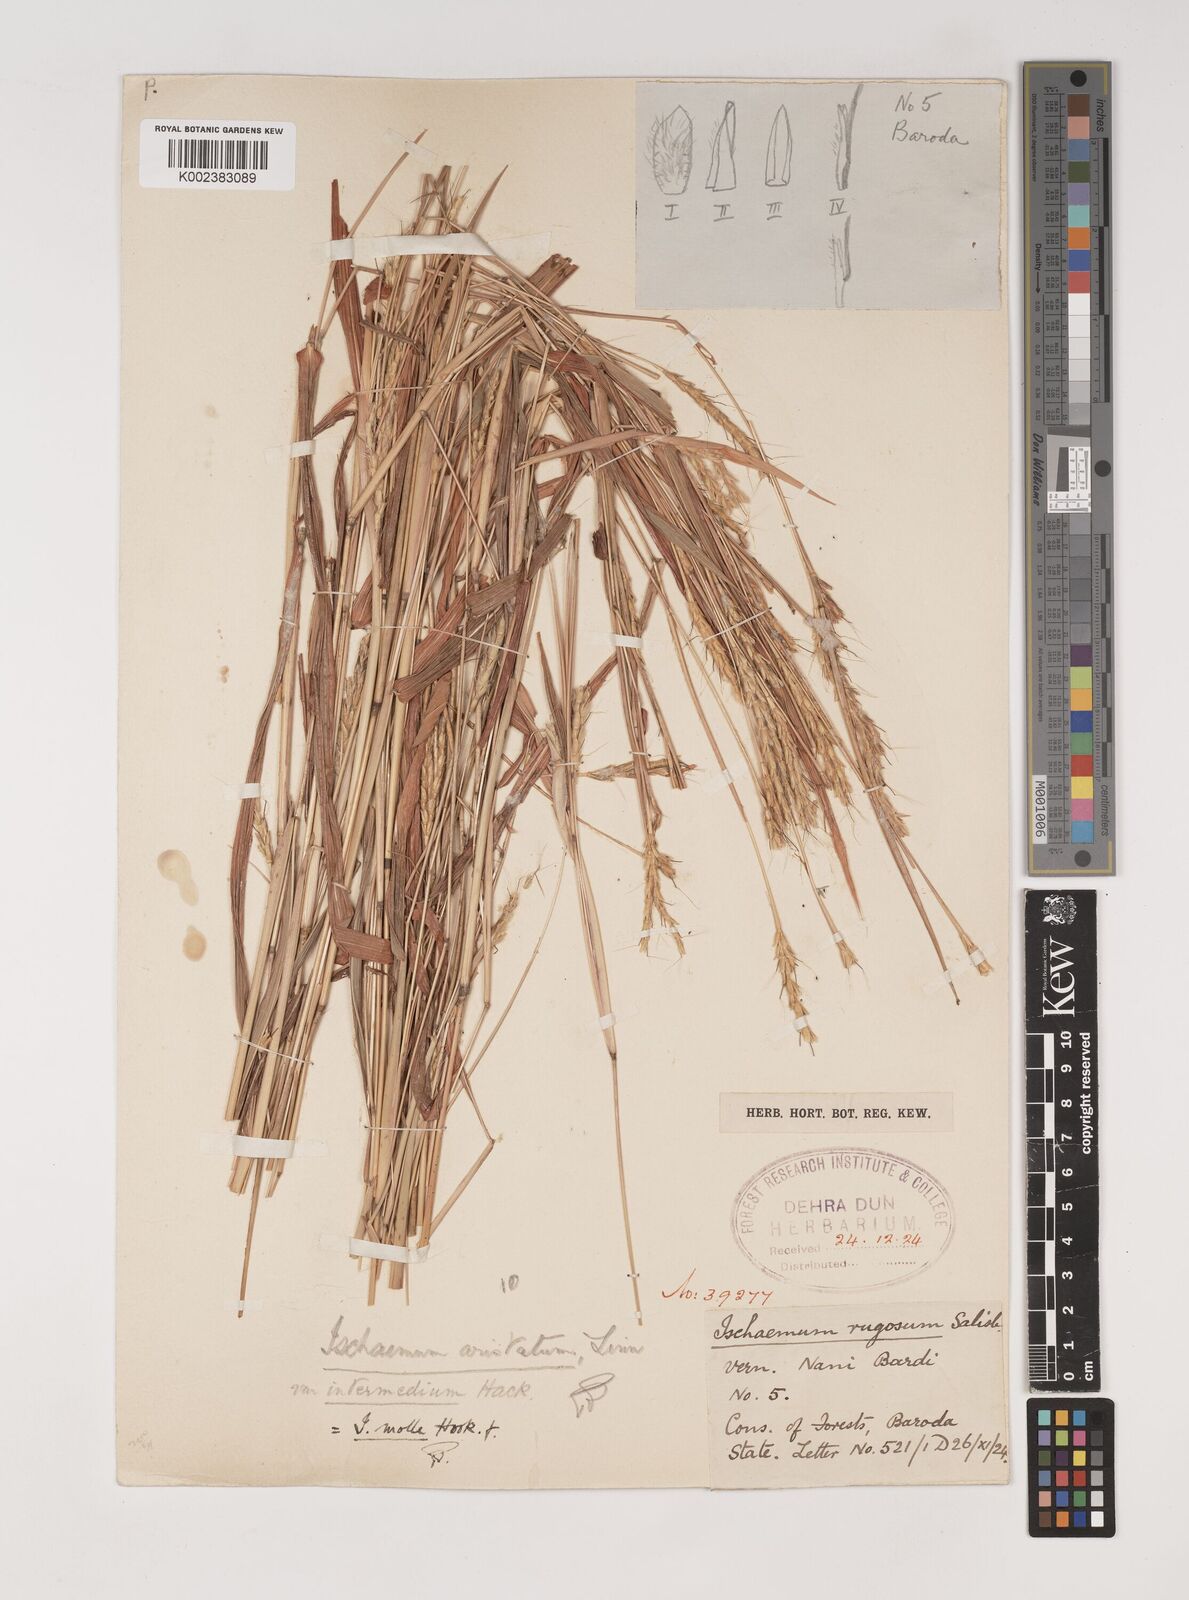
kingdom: Plantae
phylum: Tracheophyta
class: Liliopsida
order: Poales
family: Poaceae
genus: Ischaemum
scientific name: Ischaemum molle
